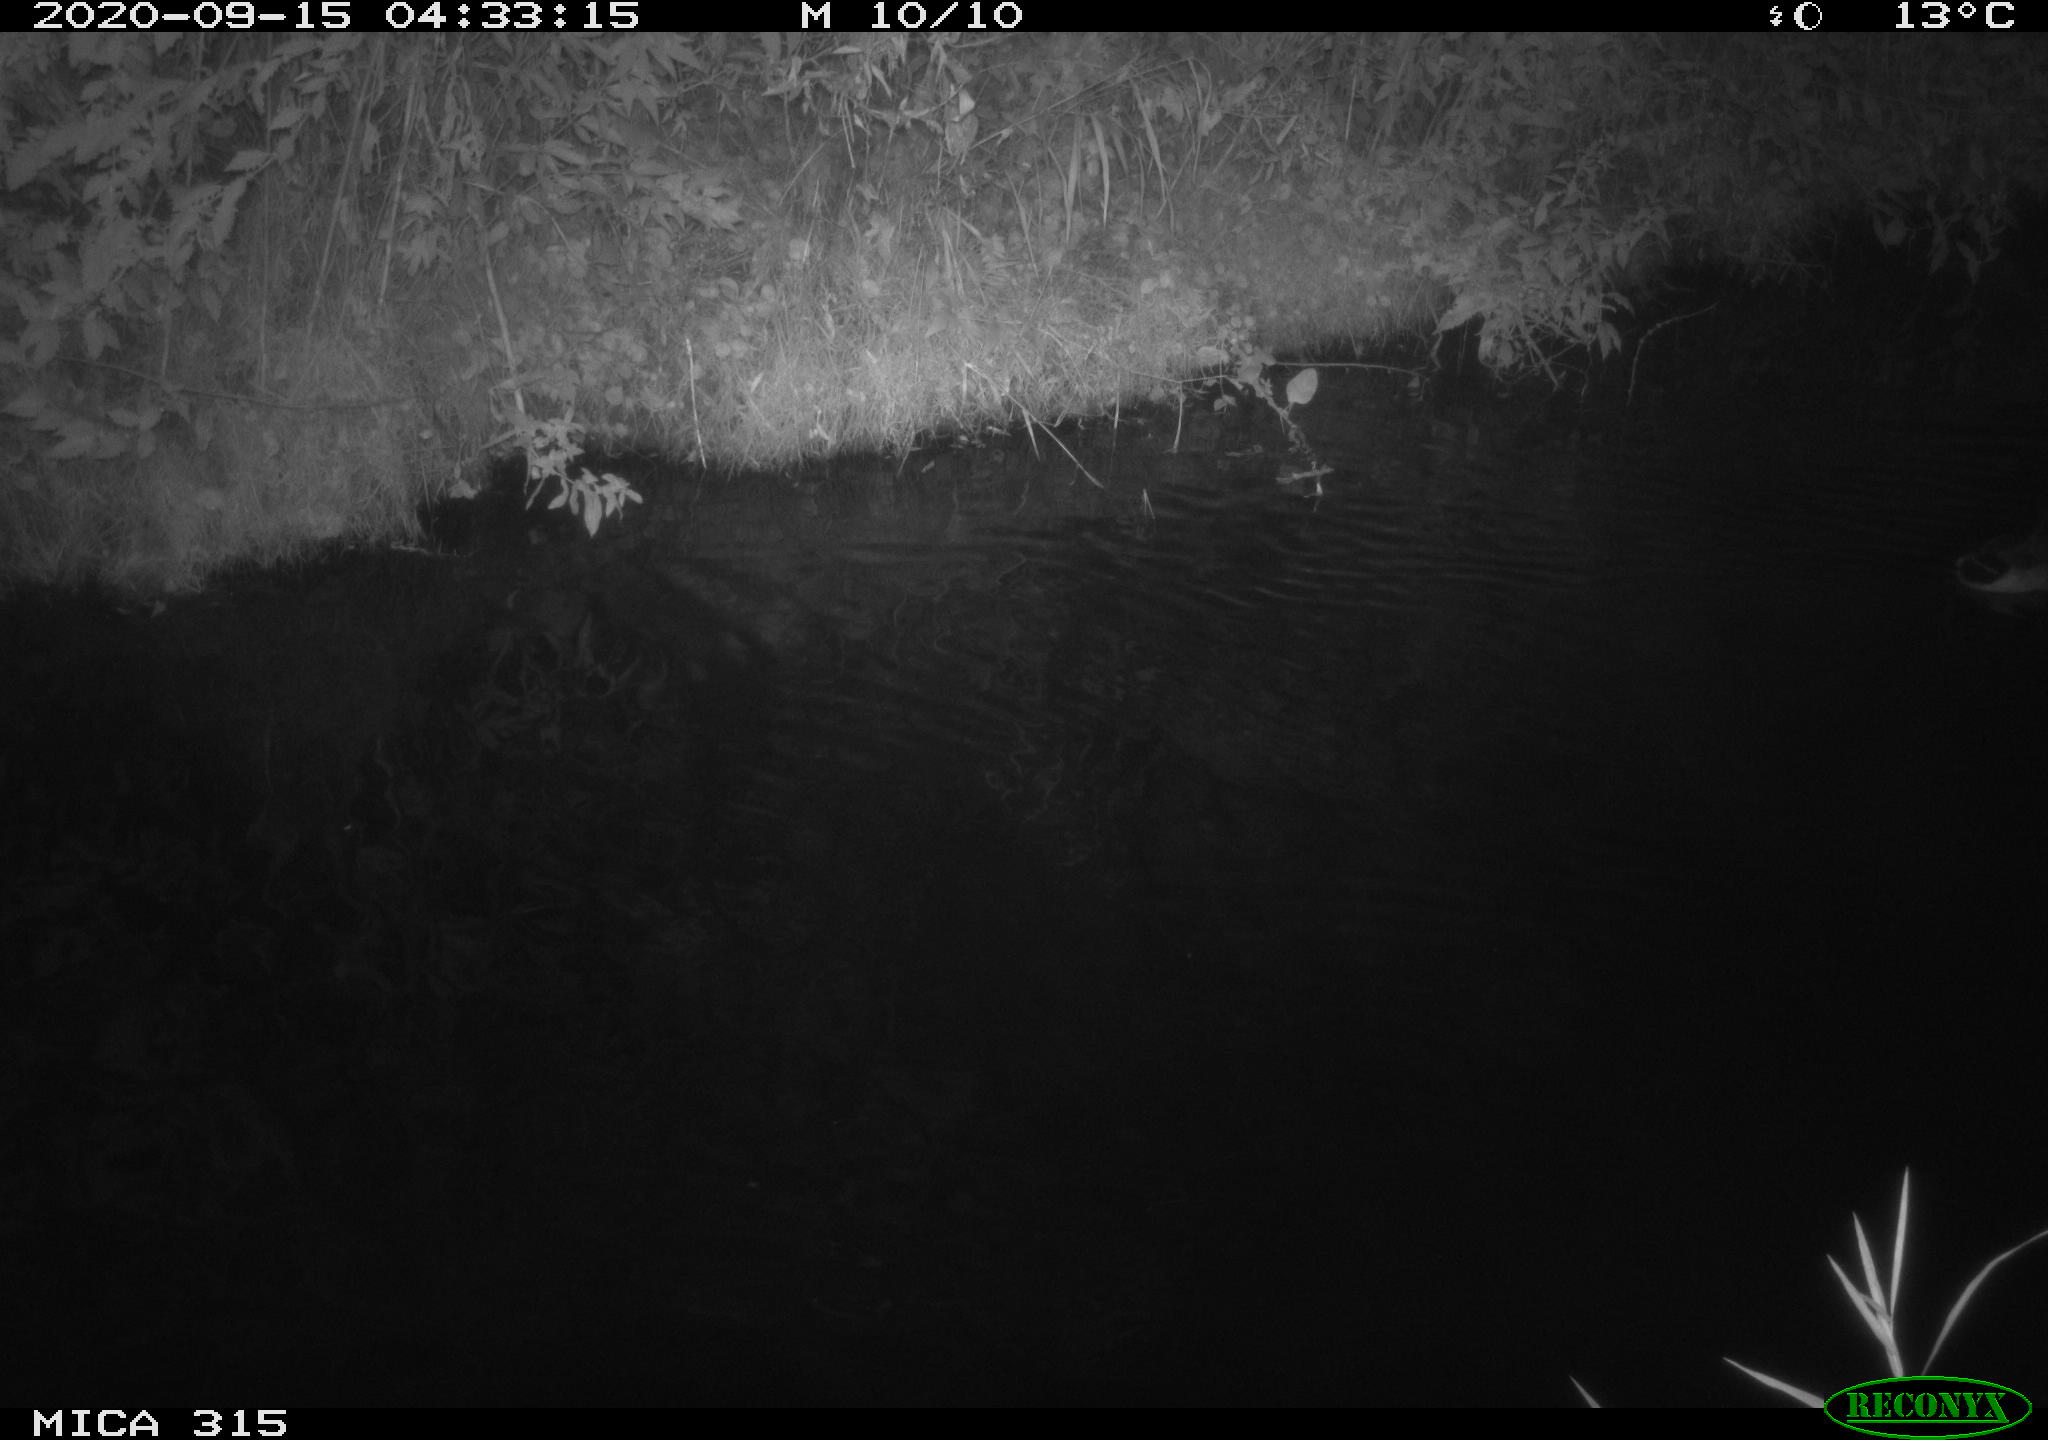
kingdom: Animalia
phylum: Chordata
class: Aves
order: Anseriformes
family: Anatidae
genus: Anas
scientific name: Anas platyrhynchos
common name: Mallard
